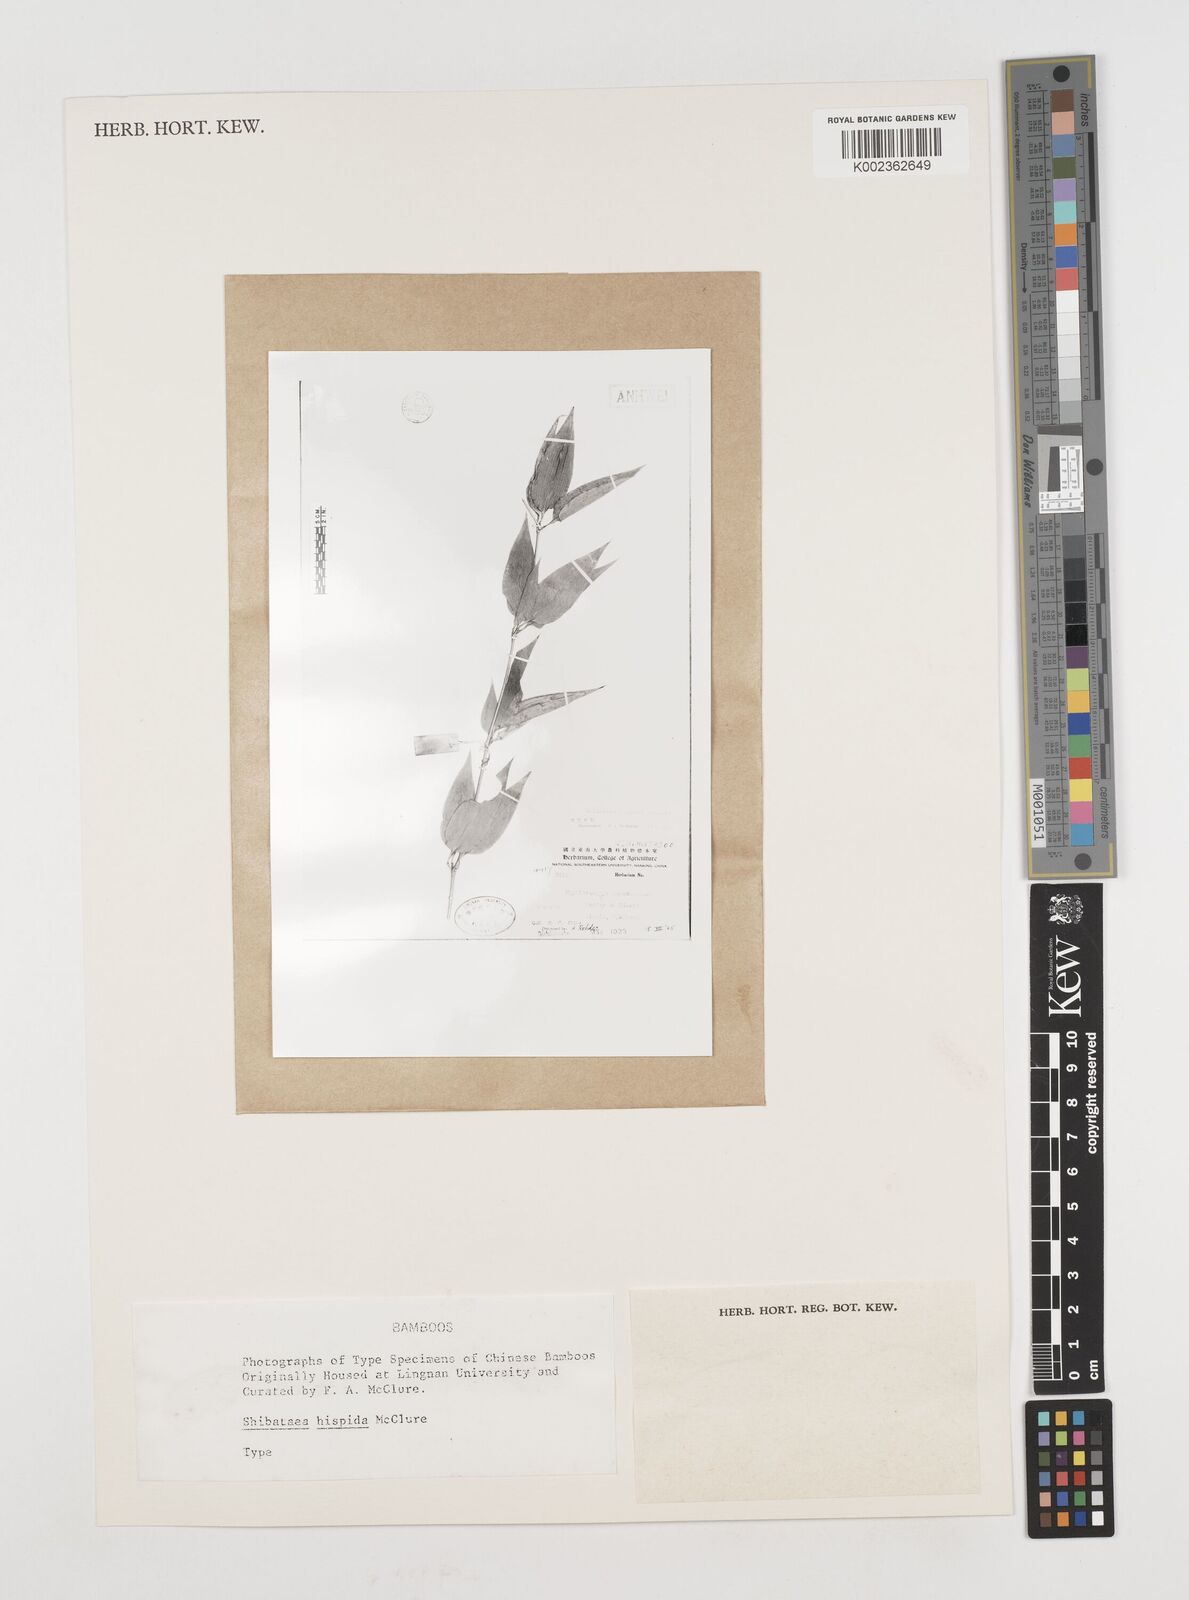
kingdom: Plantae
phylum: Tracheophyta
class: Liliopsida
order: Poales
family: Poaceae
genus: Shibataea
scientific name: Shibataea hispida
